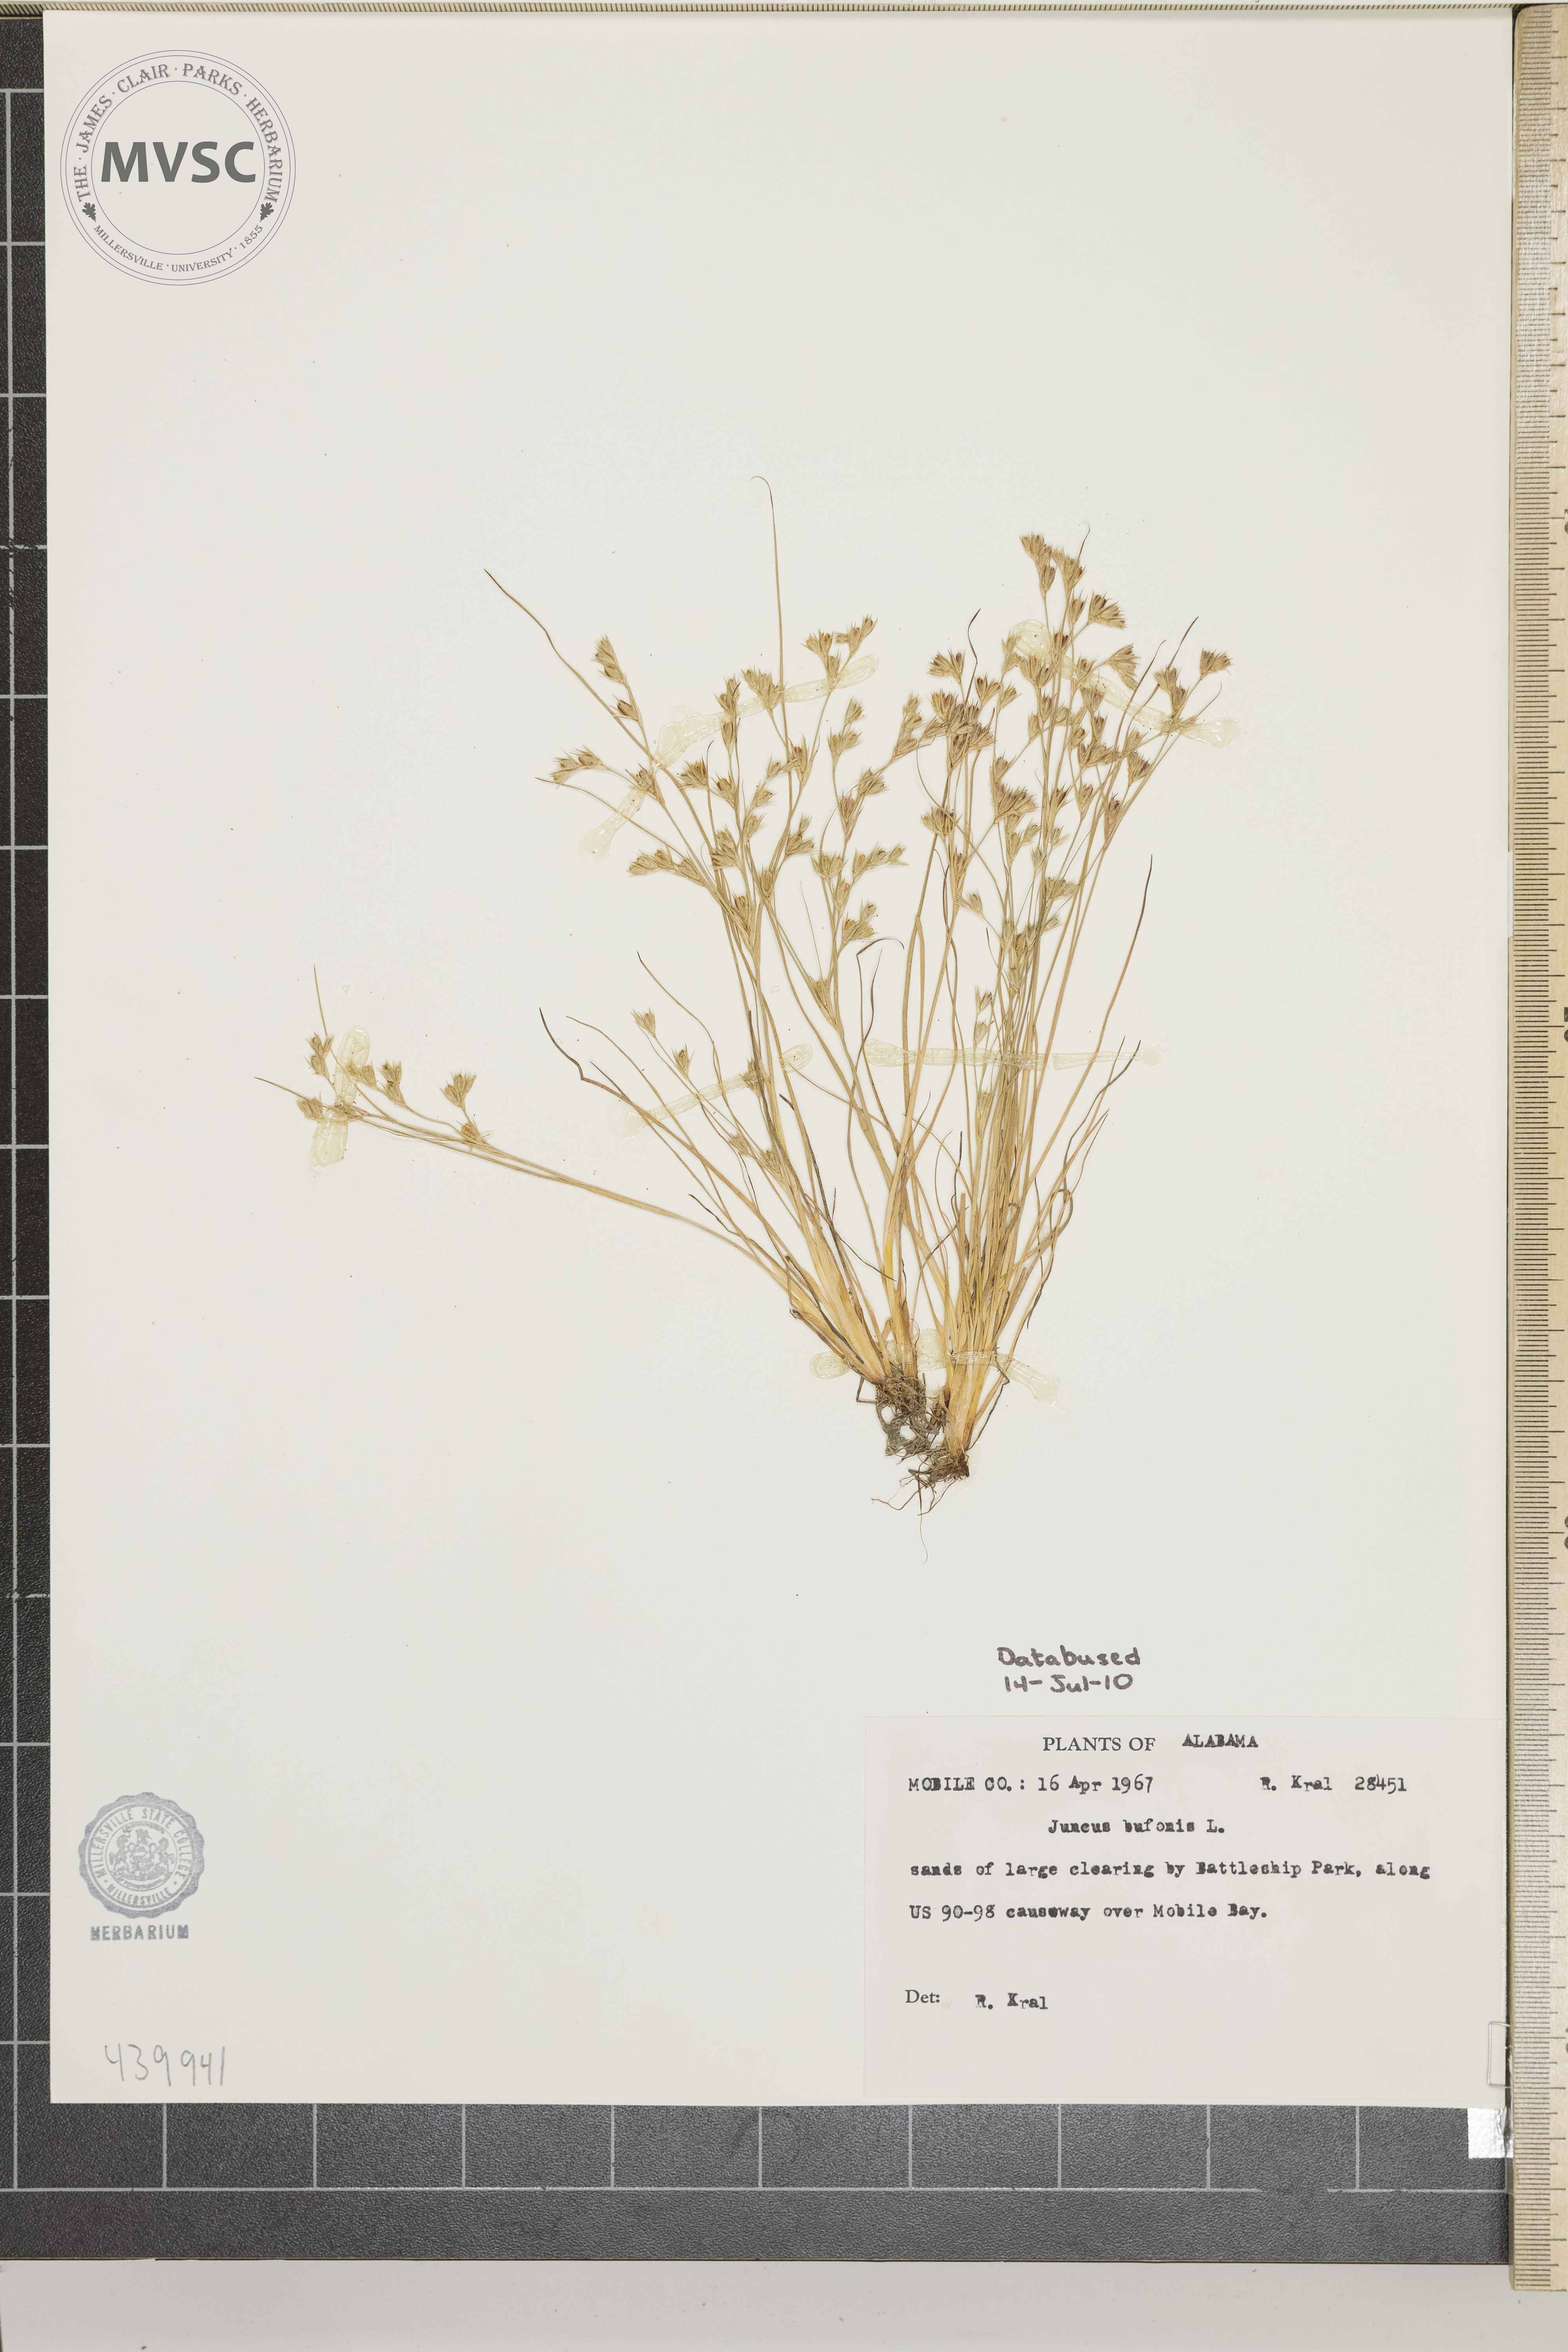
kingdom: Plantae
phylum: Tracheophyta
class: Liliopsida
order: Poales
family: Juncaceae
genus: Juncus
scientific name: Juncus bufonius
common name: Toad rush
